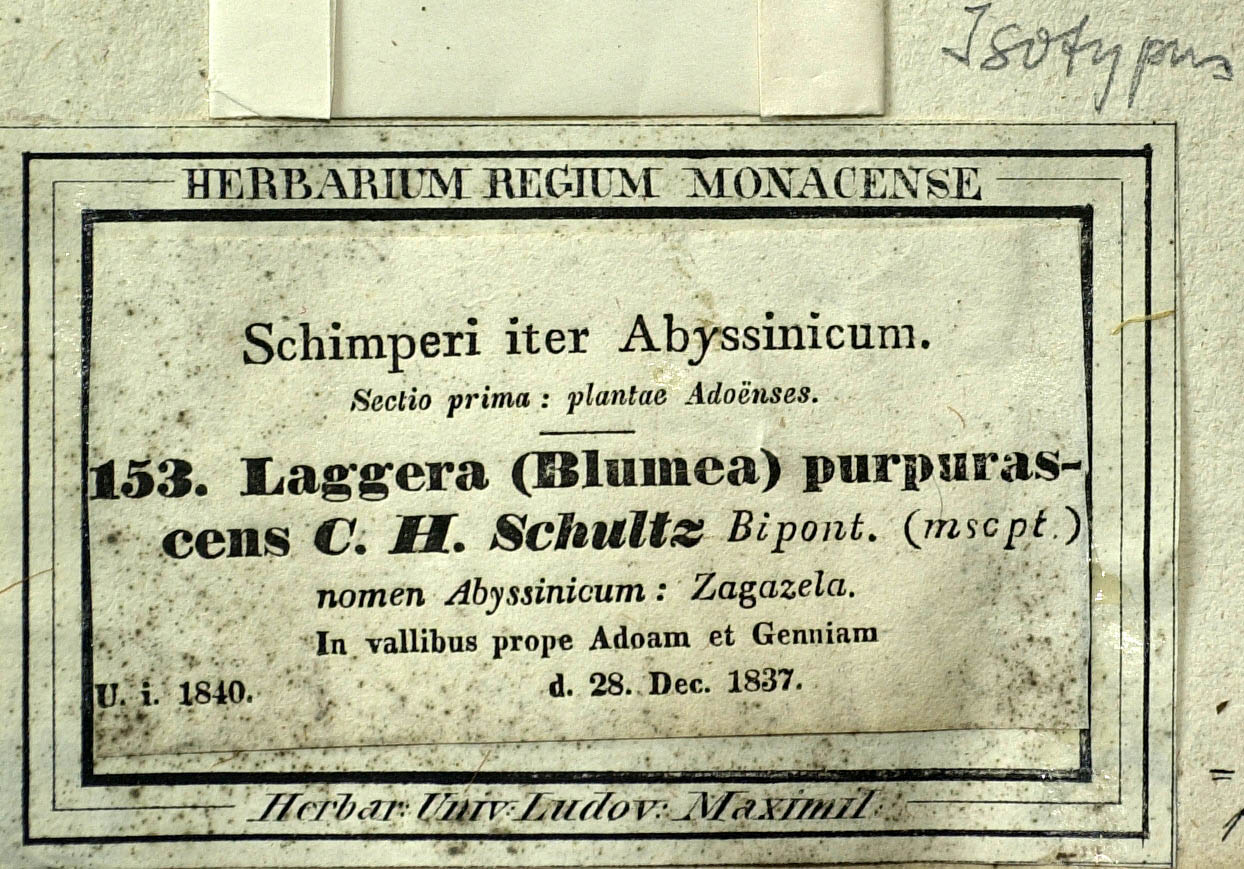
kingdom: Plantae
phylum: Tracheophyta
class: Magnoliopsida
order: Asterales
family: Asteraceae
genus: Laggera
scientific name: Laggera crispata
